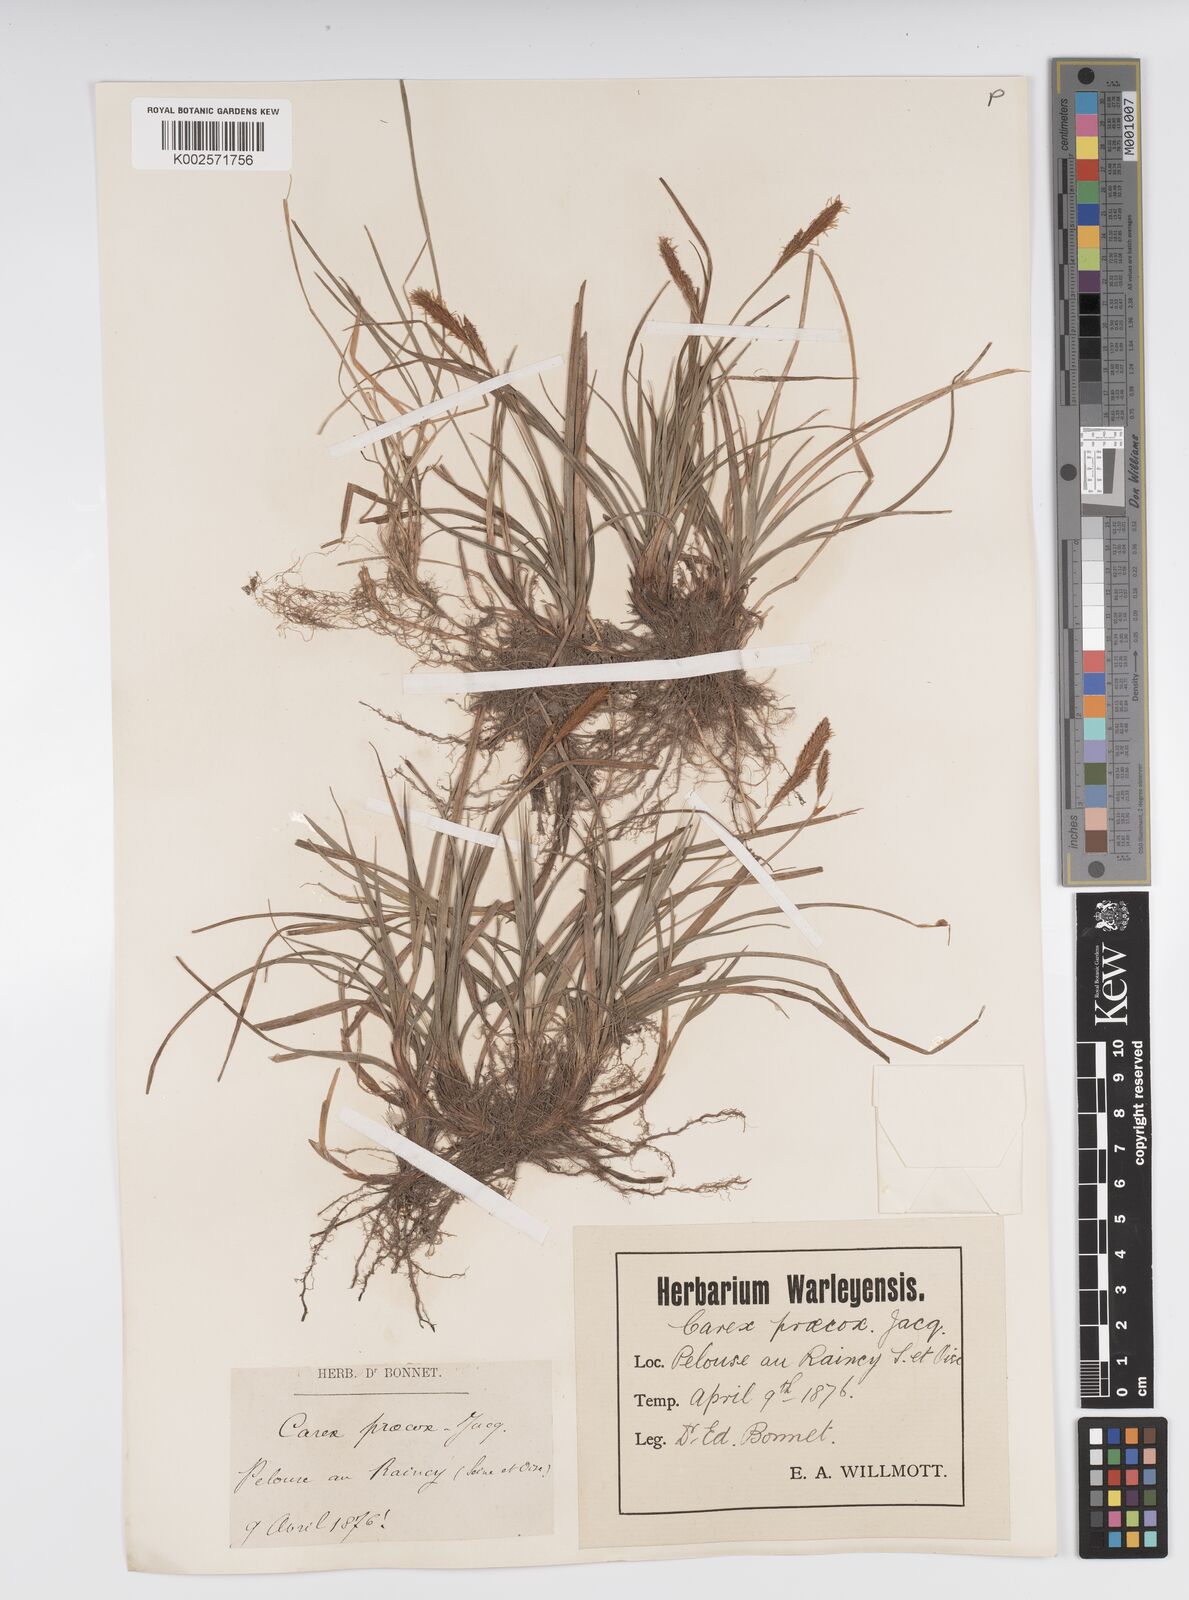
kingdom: Plantae
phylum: Tracheophyta
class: Liliopsida
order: Poales
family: Cyperaceae
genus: Carex
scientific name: Carex caryophyllea
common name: Spring sedge
